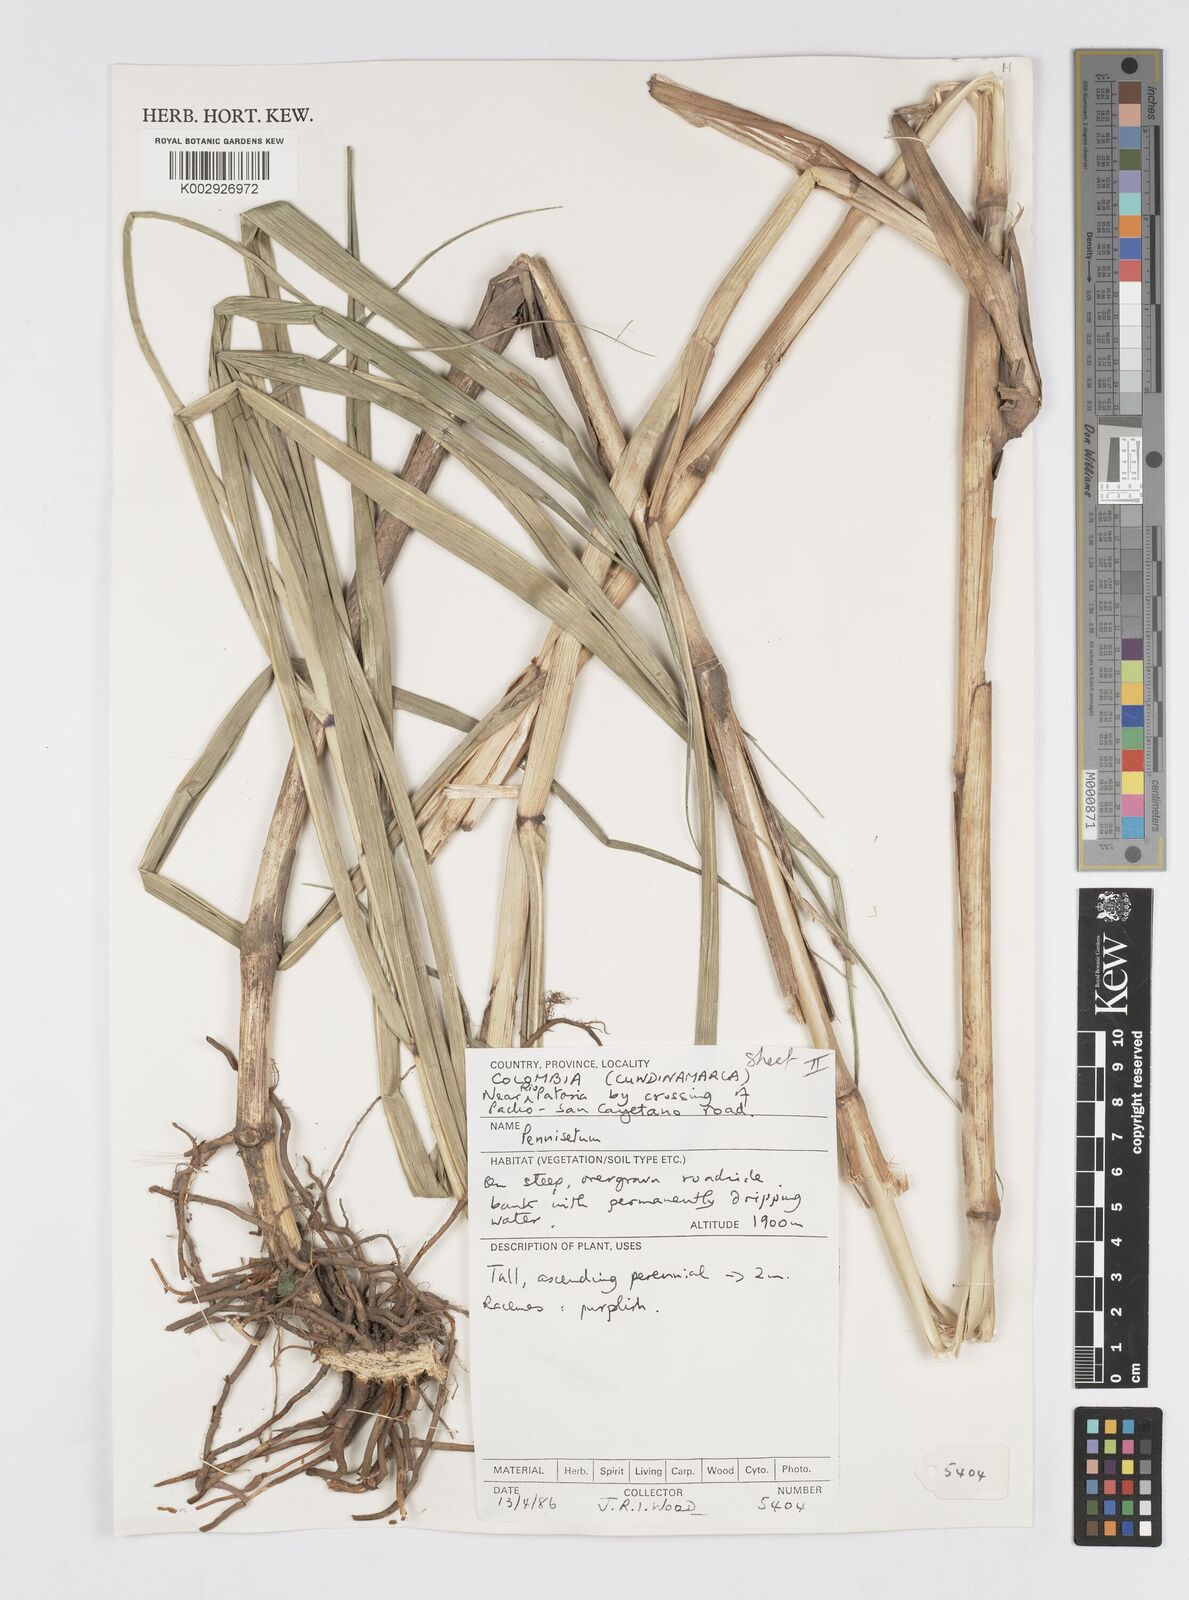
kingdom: Plantae
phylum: Tracheophyta
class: Liliopsida
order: Poales
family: Poaceae
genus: Cenchrus
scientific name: Cenchrus peruvianus
